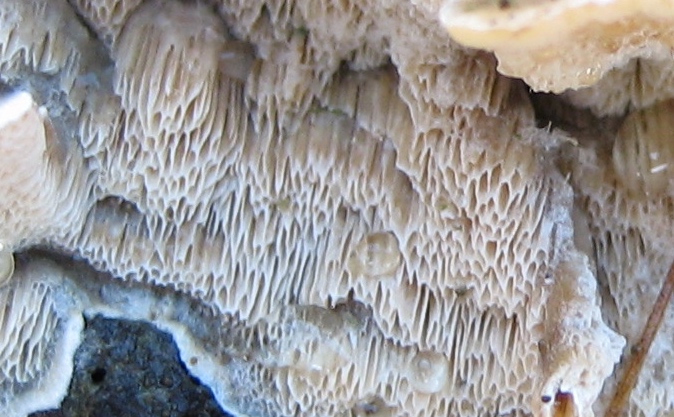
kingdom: Fungi
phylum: Basidiomycota
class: Agaricomycetes
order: Polyporales
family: Incrustoporiaceae
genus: Skeletocutis
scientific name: Skeletocutis carneogrisea
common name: rødgrå krystalporesvamp
